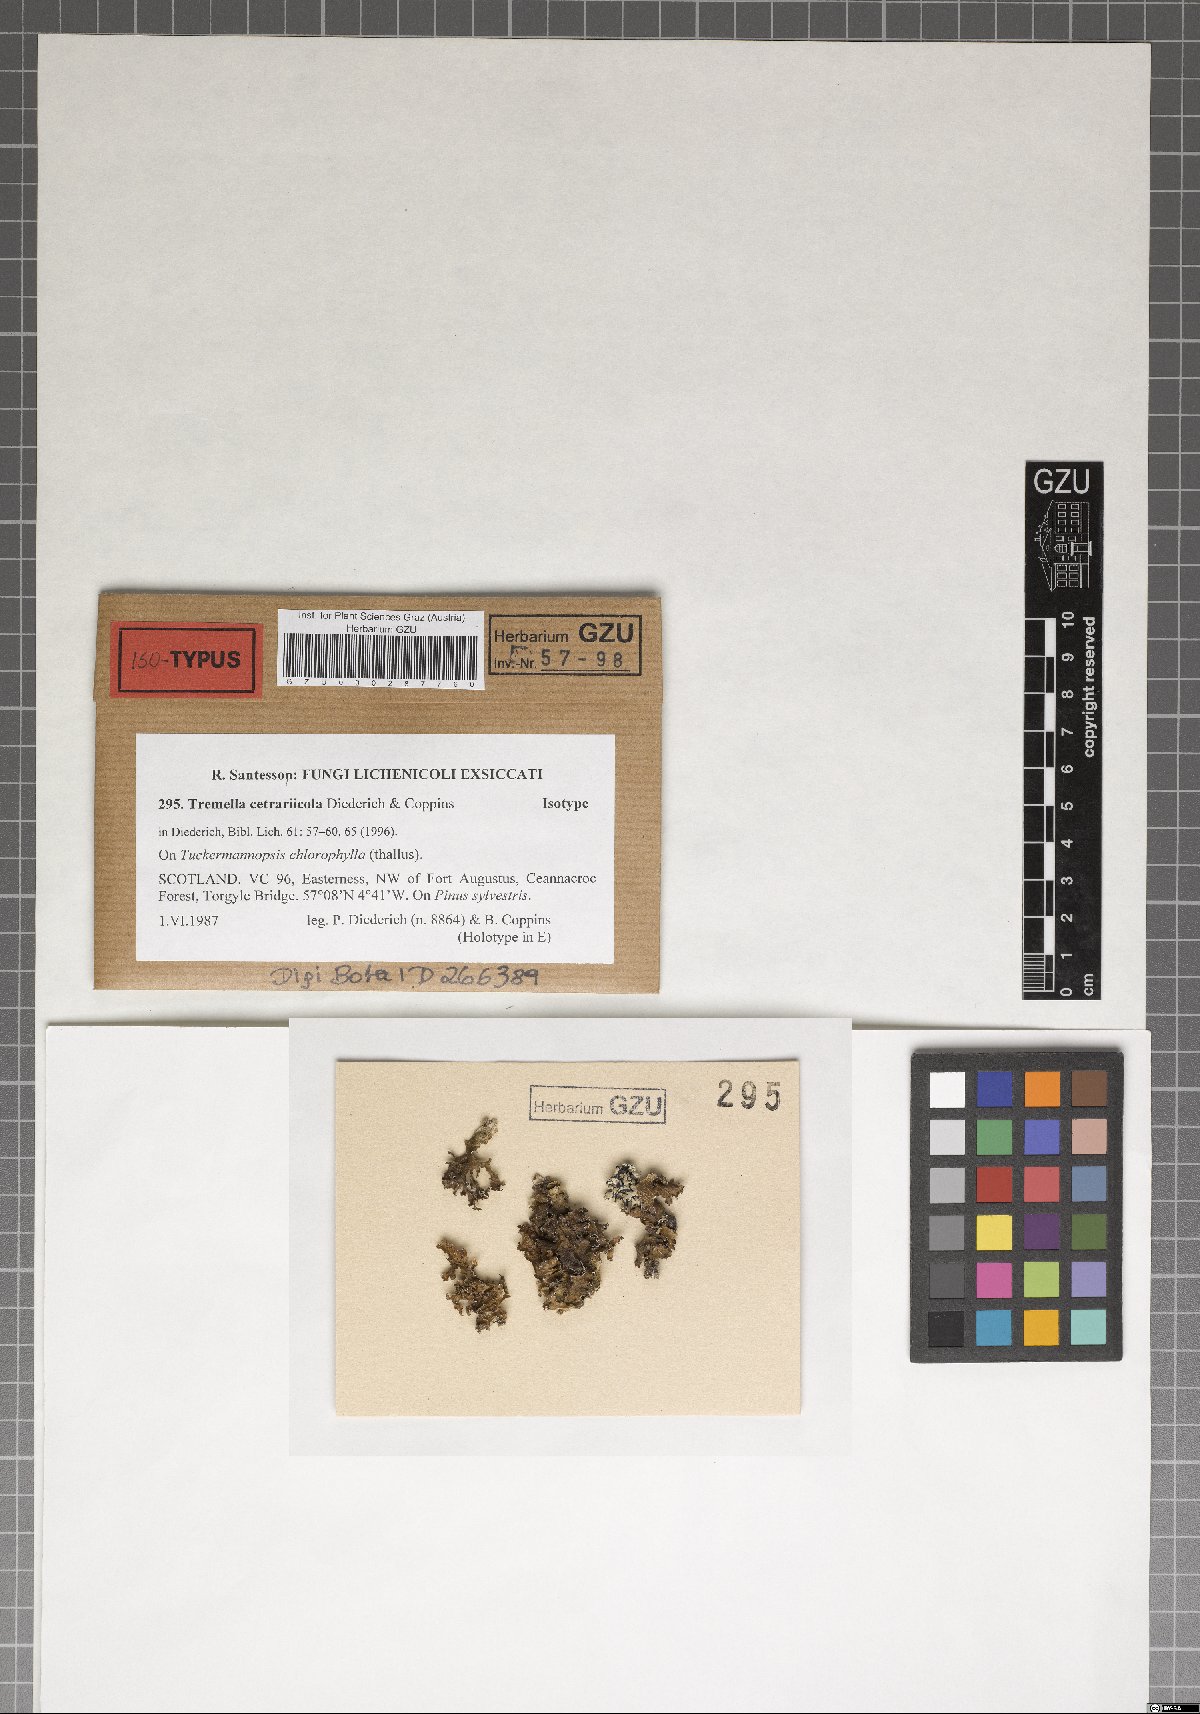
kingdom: Fungi
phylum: Basidiomycota
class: Tremellomycetes
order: Tremellales
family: Tremellaceae
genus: Tremella
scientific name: Tremella cetrariicola
